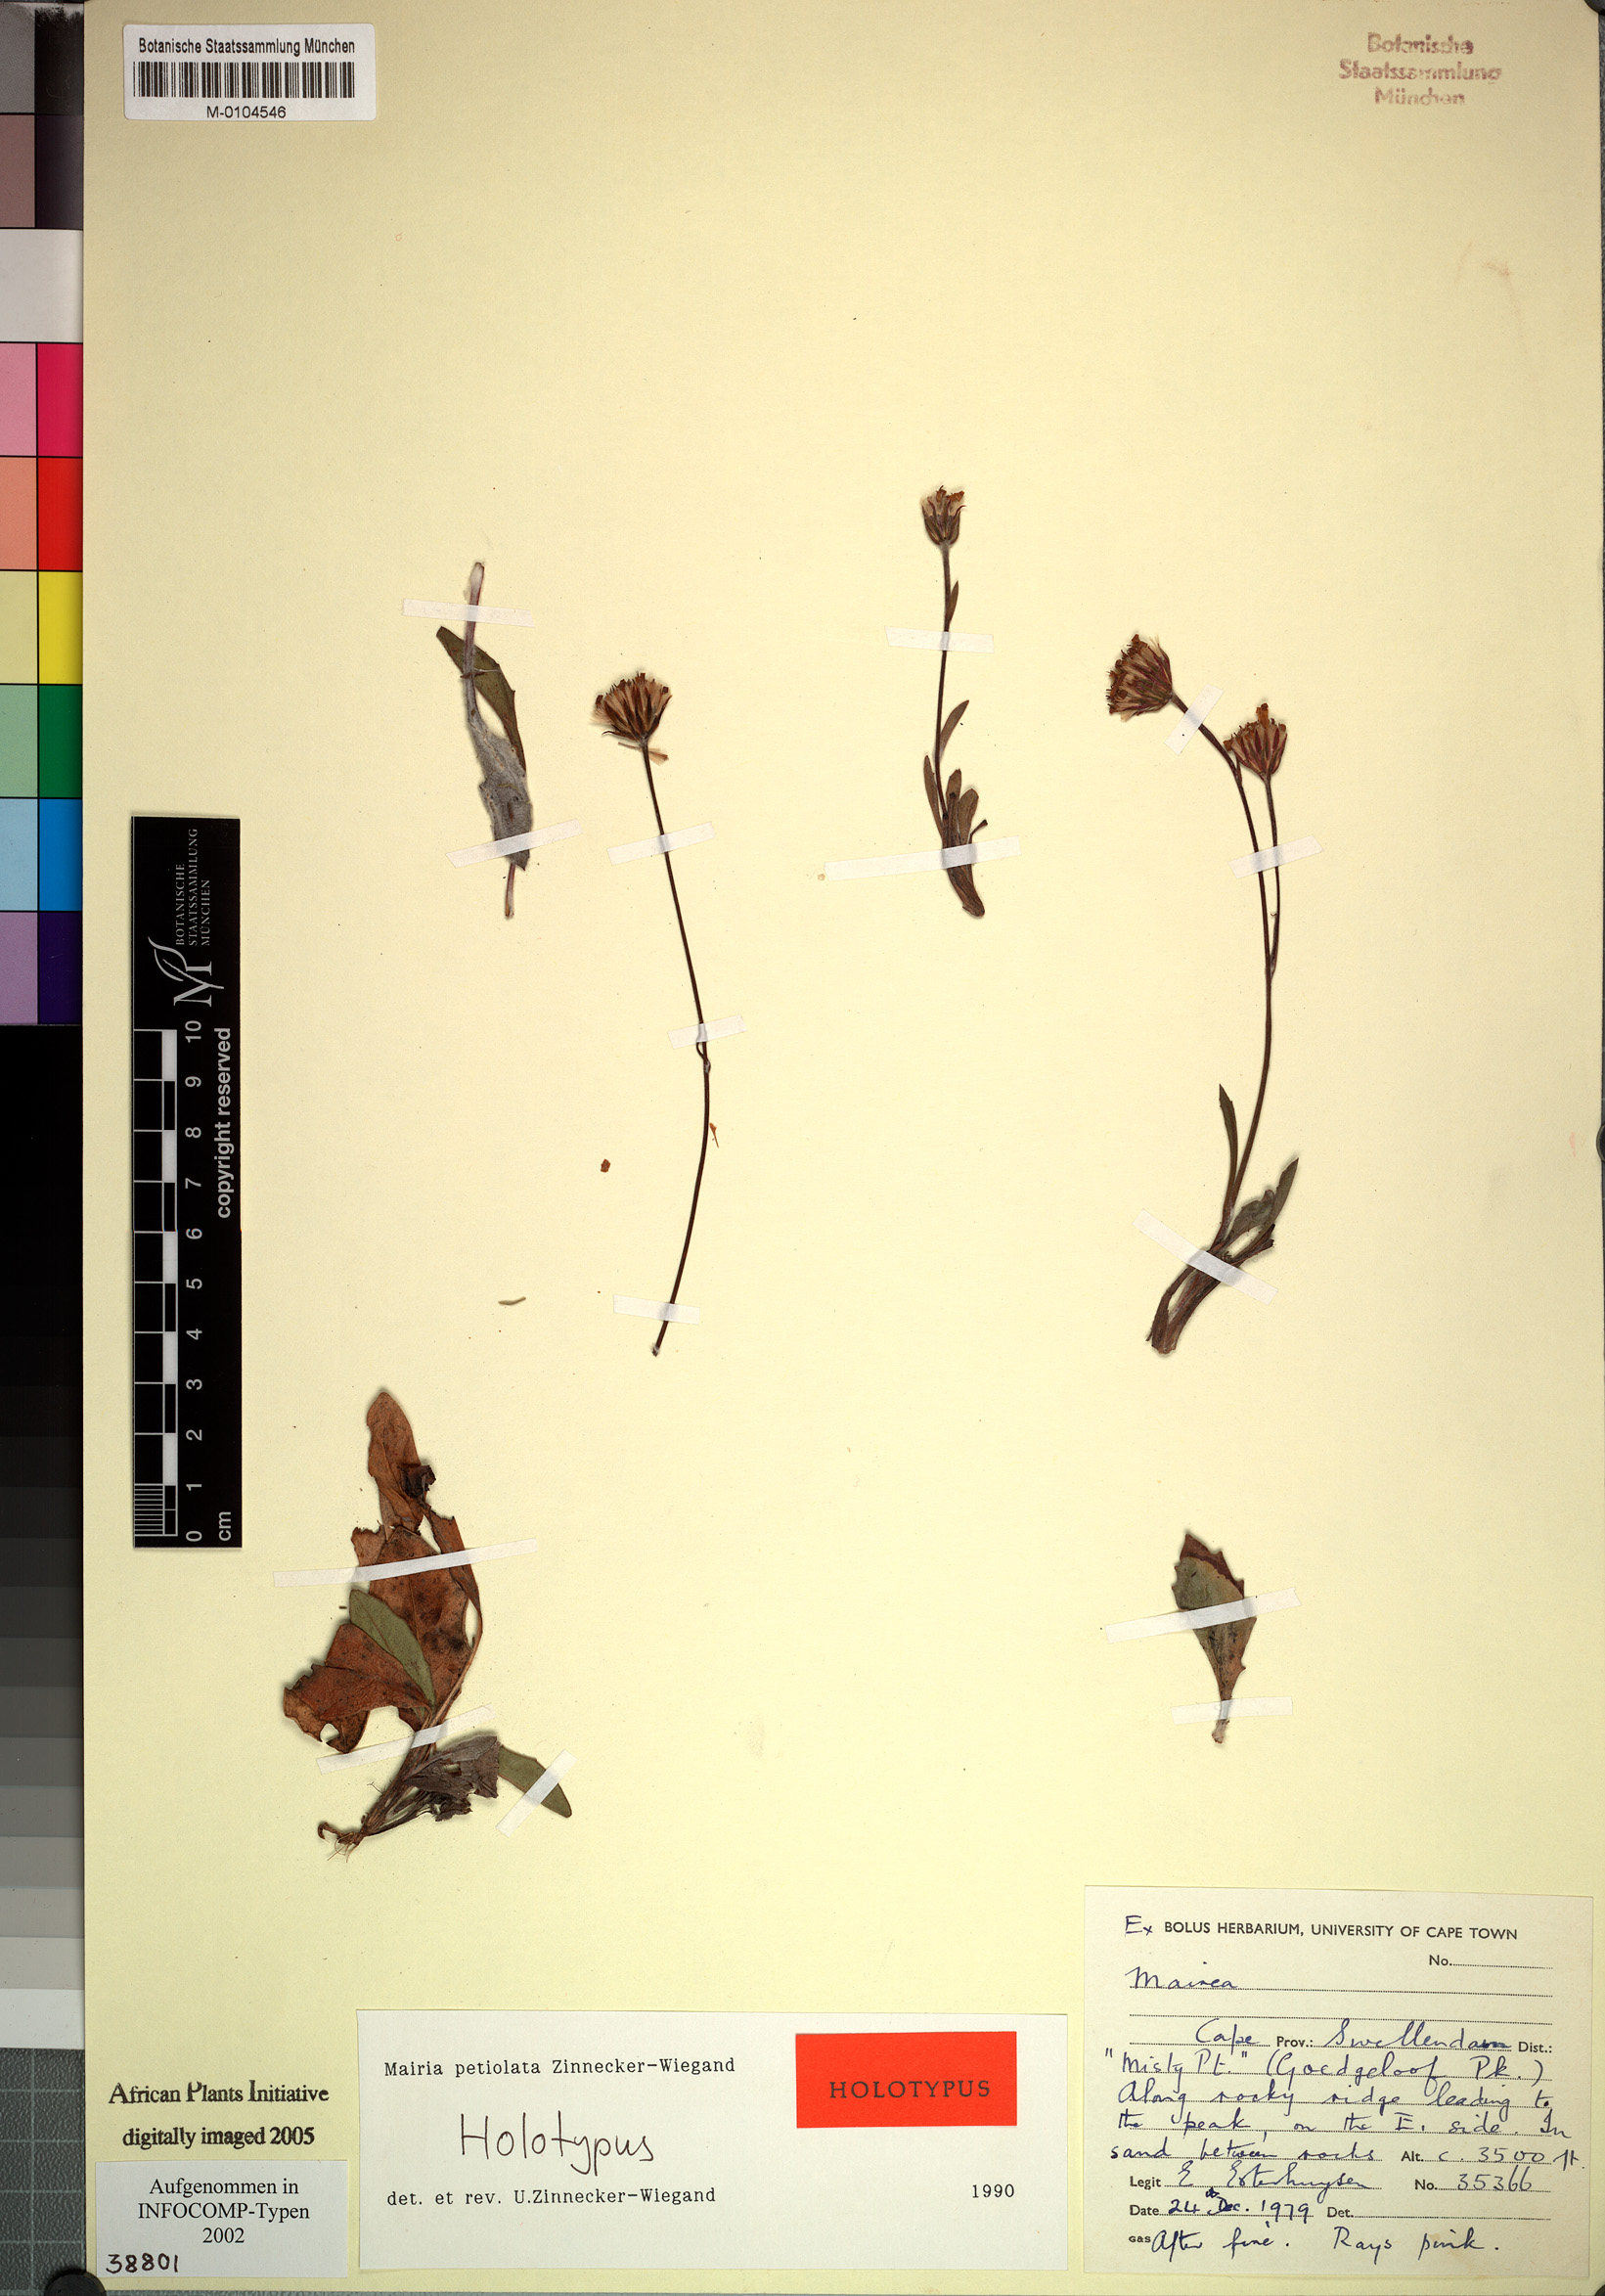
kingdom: Plantae
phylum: Tracheophyta
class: Magnoliopsida
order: Asterales
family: Asteraceae
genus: Mairia
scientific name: Mairia petiolata
